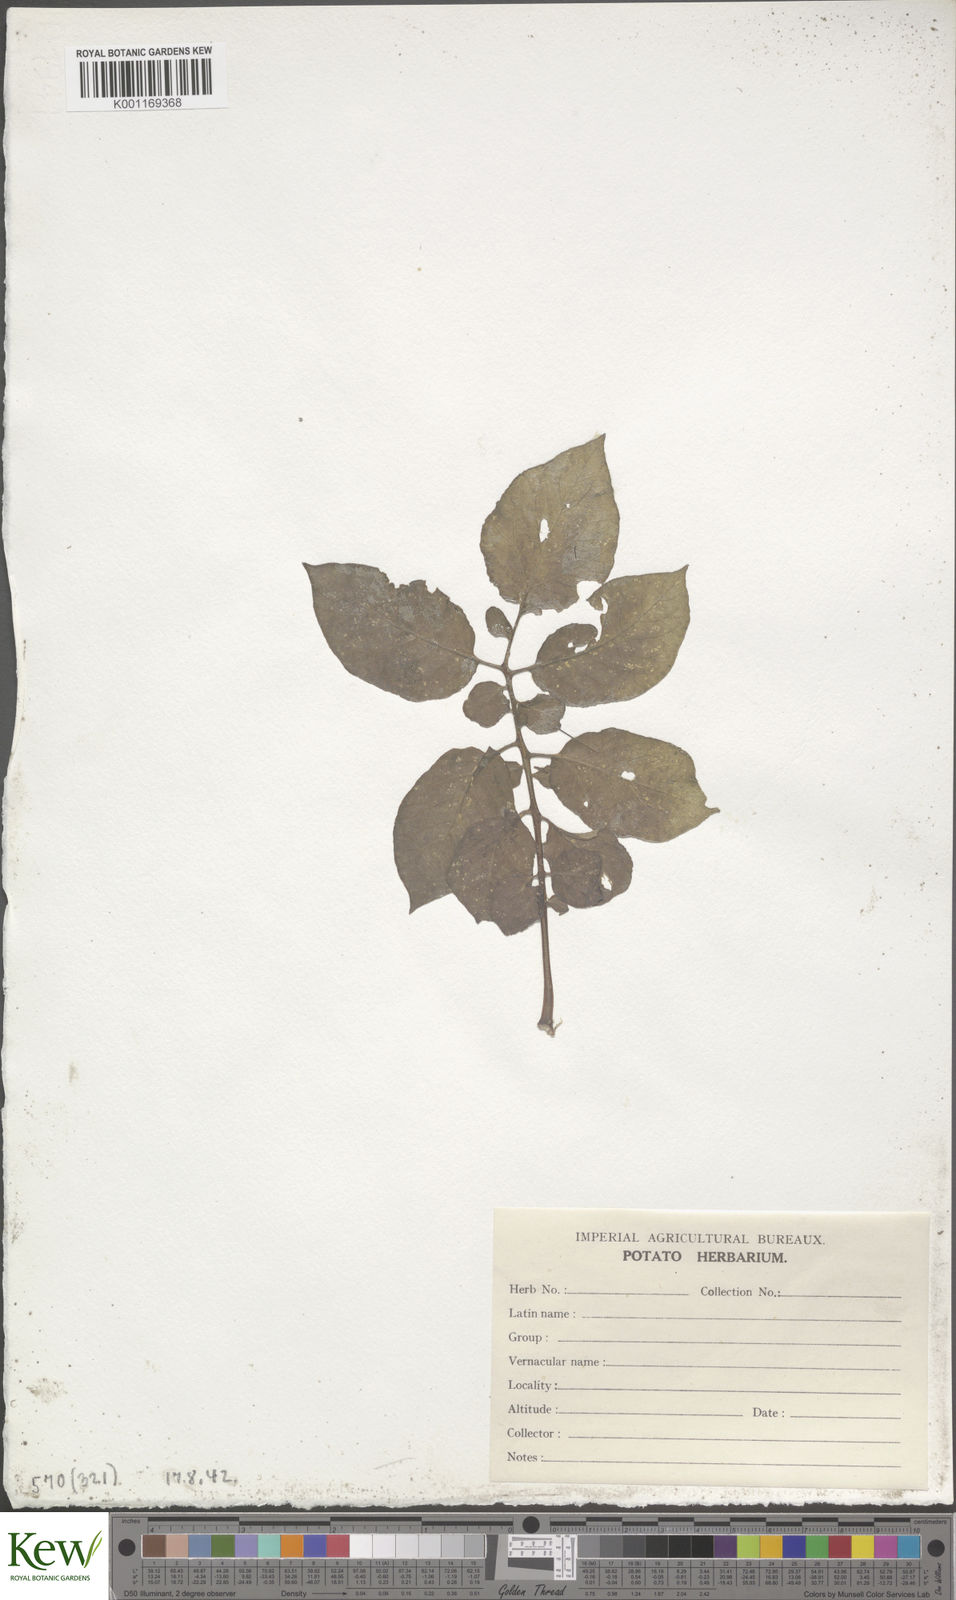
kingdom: Plantae
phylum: Tracheophyta
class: Magnoliopsida
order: Solanales
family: Solanaceae
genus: Solanum
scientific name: Solanum chaucha
